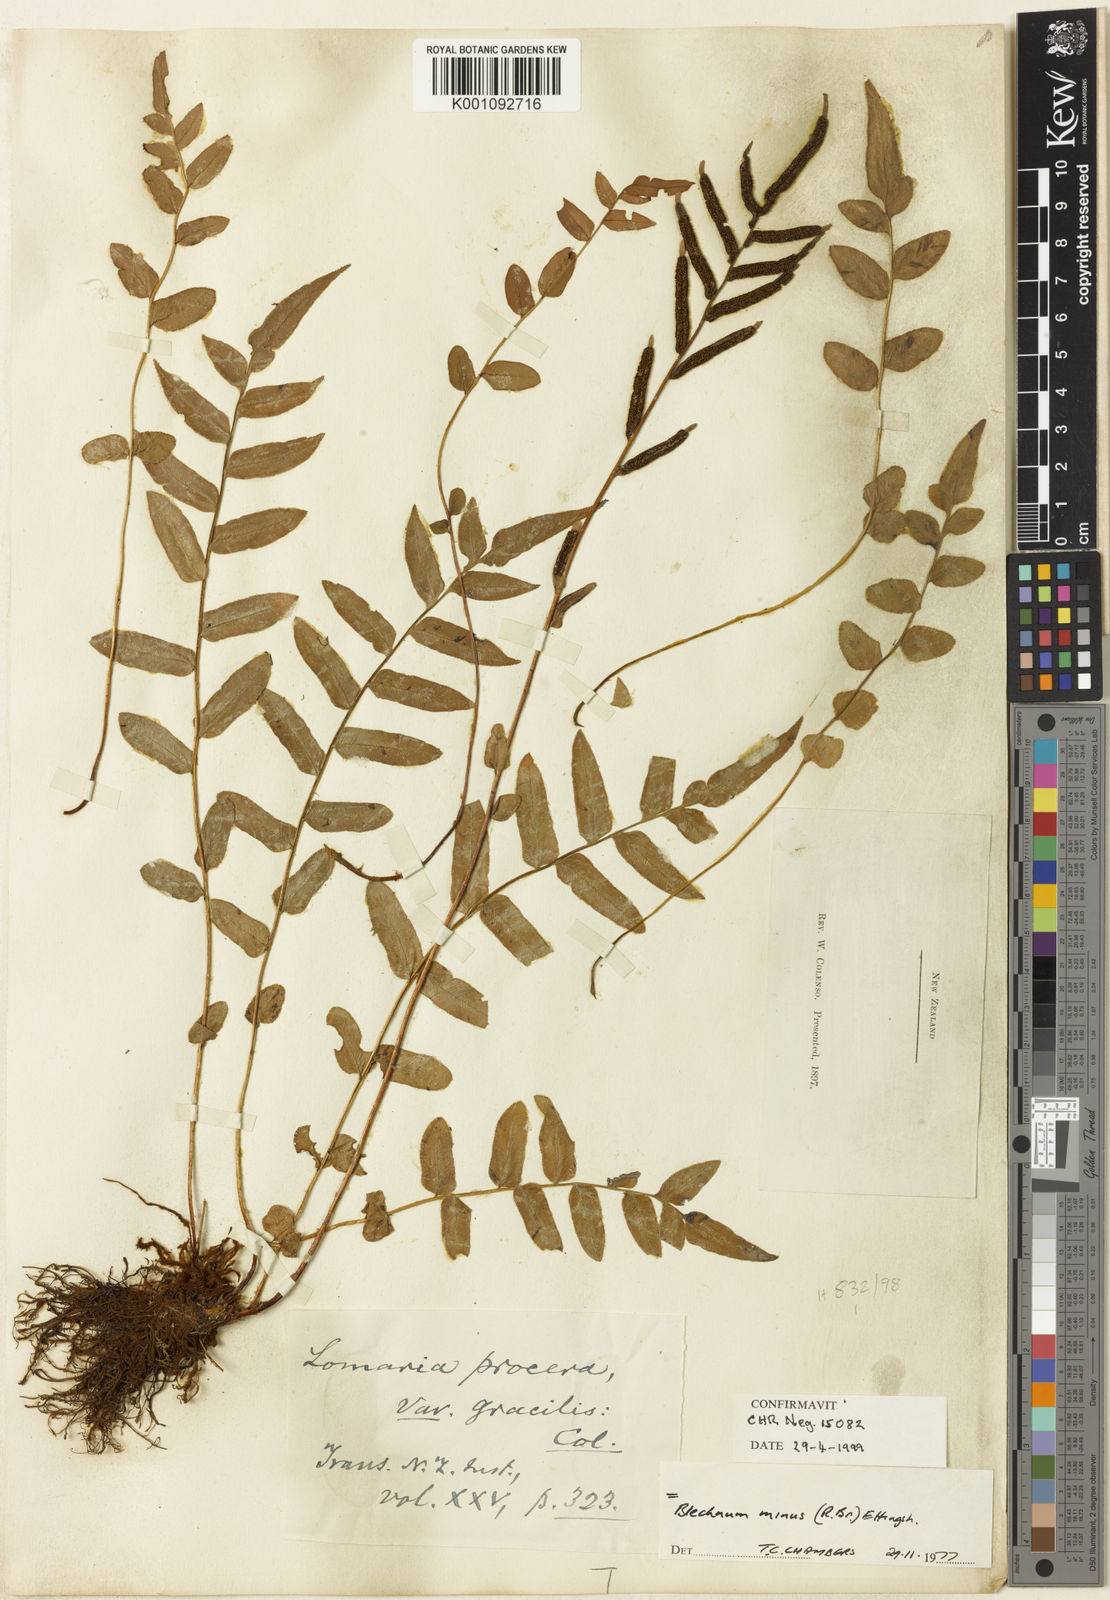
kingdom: Plantae
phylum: Tracheophyta
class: Polypodiopsida
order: Polypodiales
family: Blechnaceae
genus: Parablechnum
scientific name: Parablechnum minus
